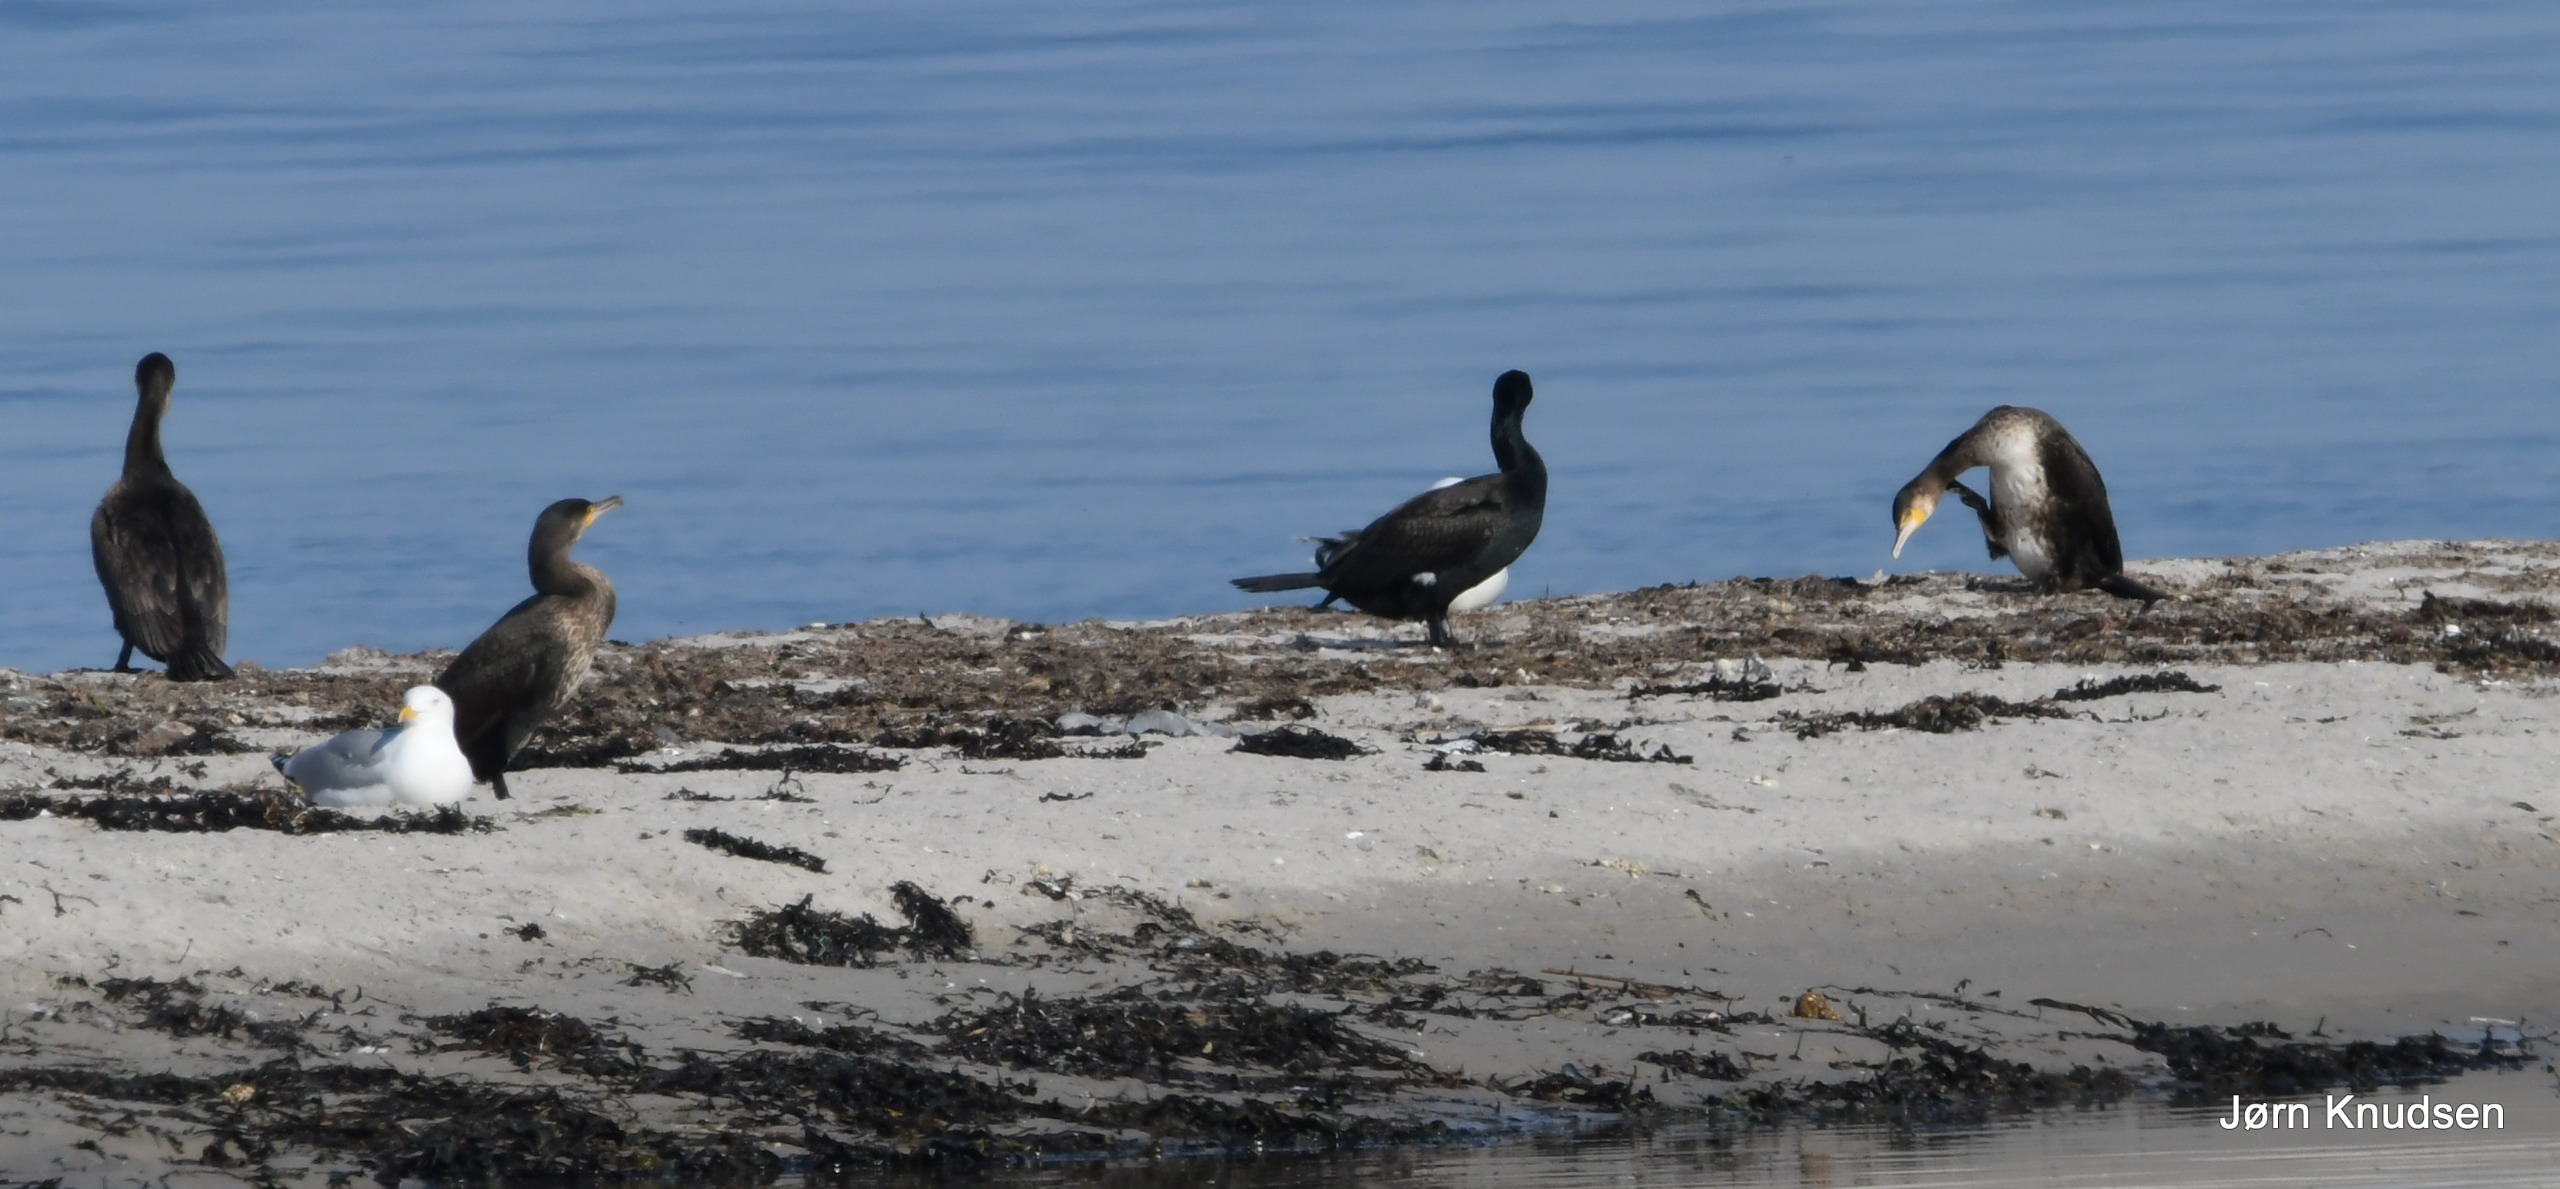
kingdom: Animalia
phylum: Chordata
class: Aves
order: Suliformes
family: Phalacrocoracidae
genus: Phalacrocorax
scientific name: Phalacrocorax carbo
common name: Skarv
